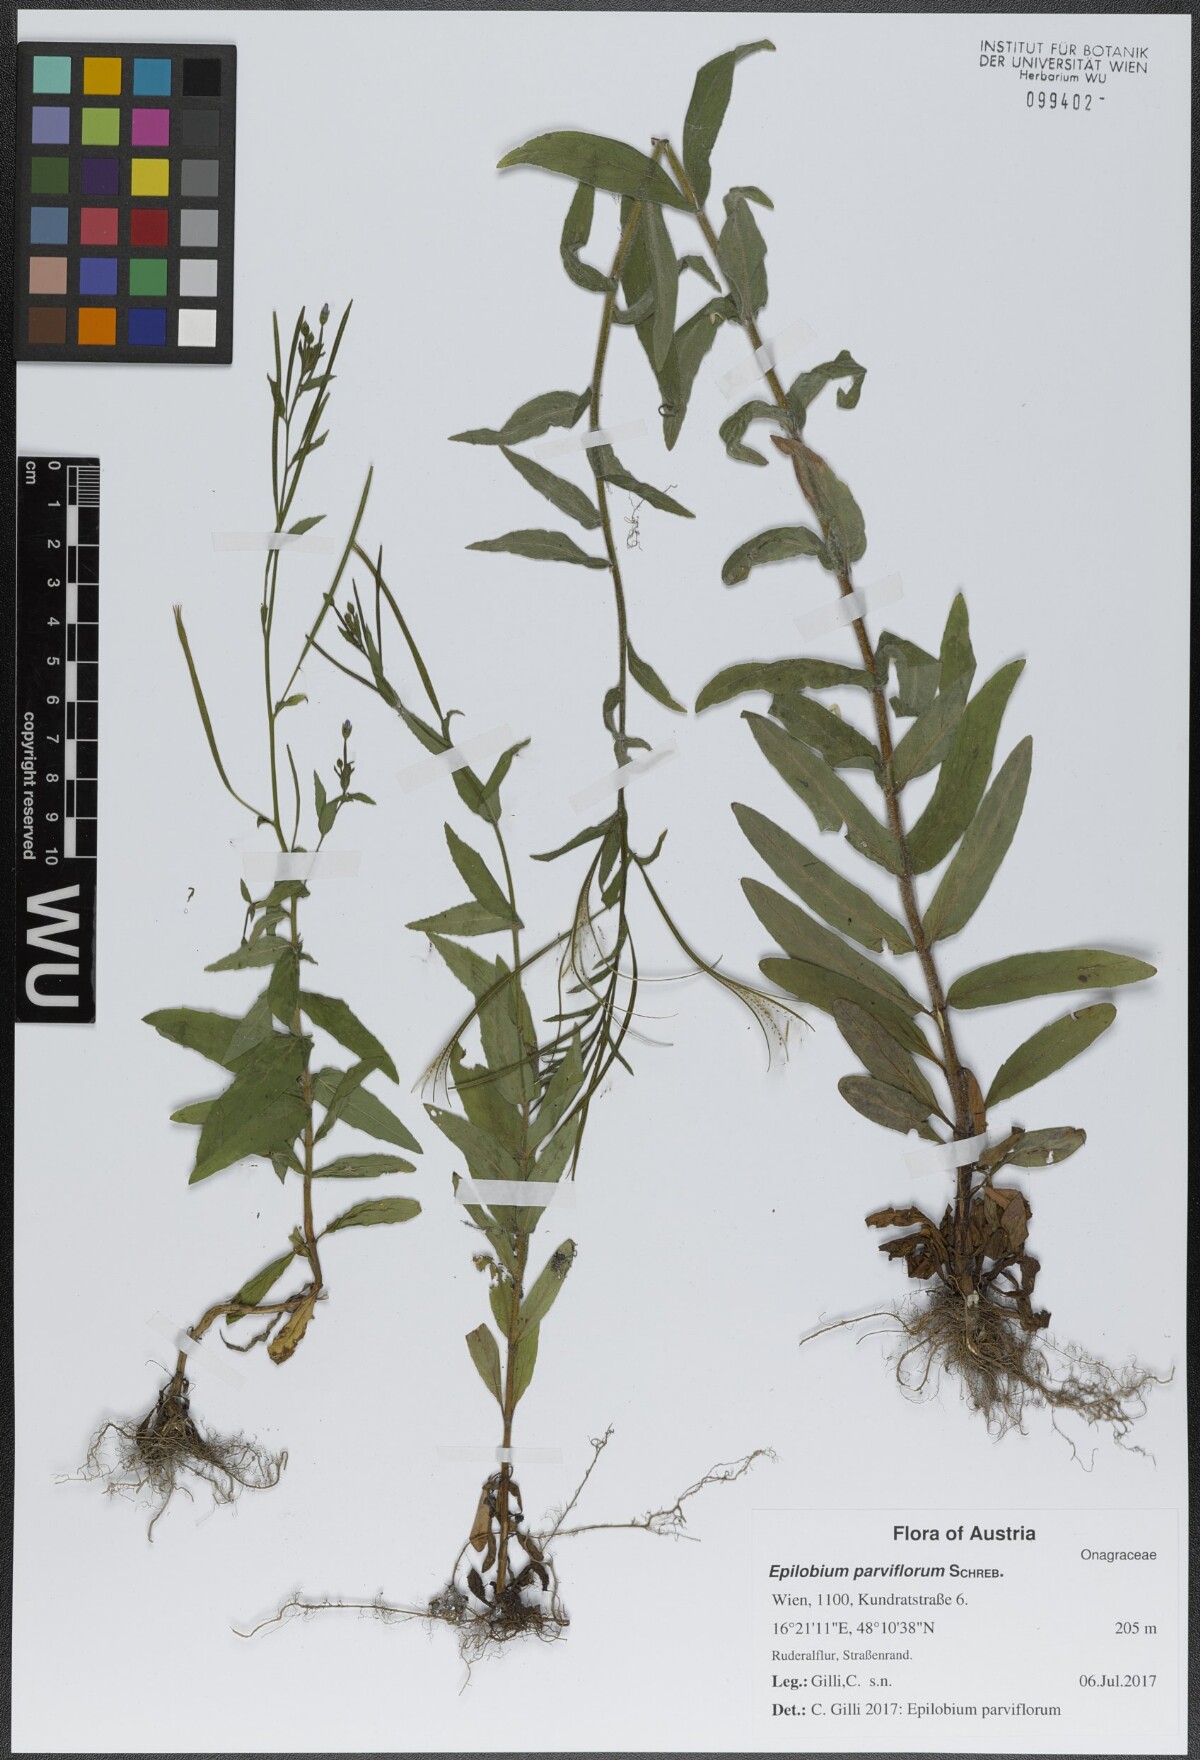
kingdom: Plantae
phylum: Tracheophyta
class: Magnoliopsida
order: Myrtales
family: Onagraceae
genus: Epilobium
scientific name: Epilobium parviflorum
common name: Hoary willowherb
